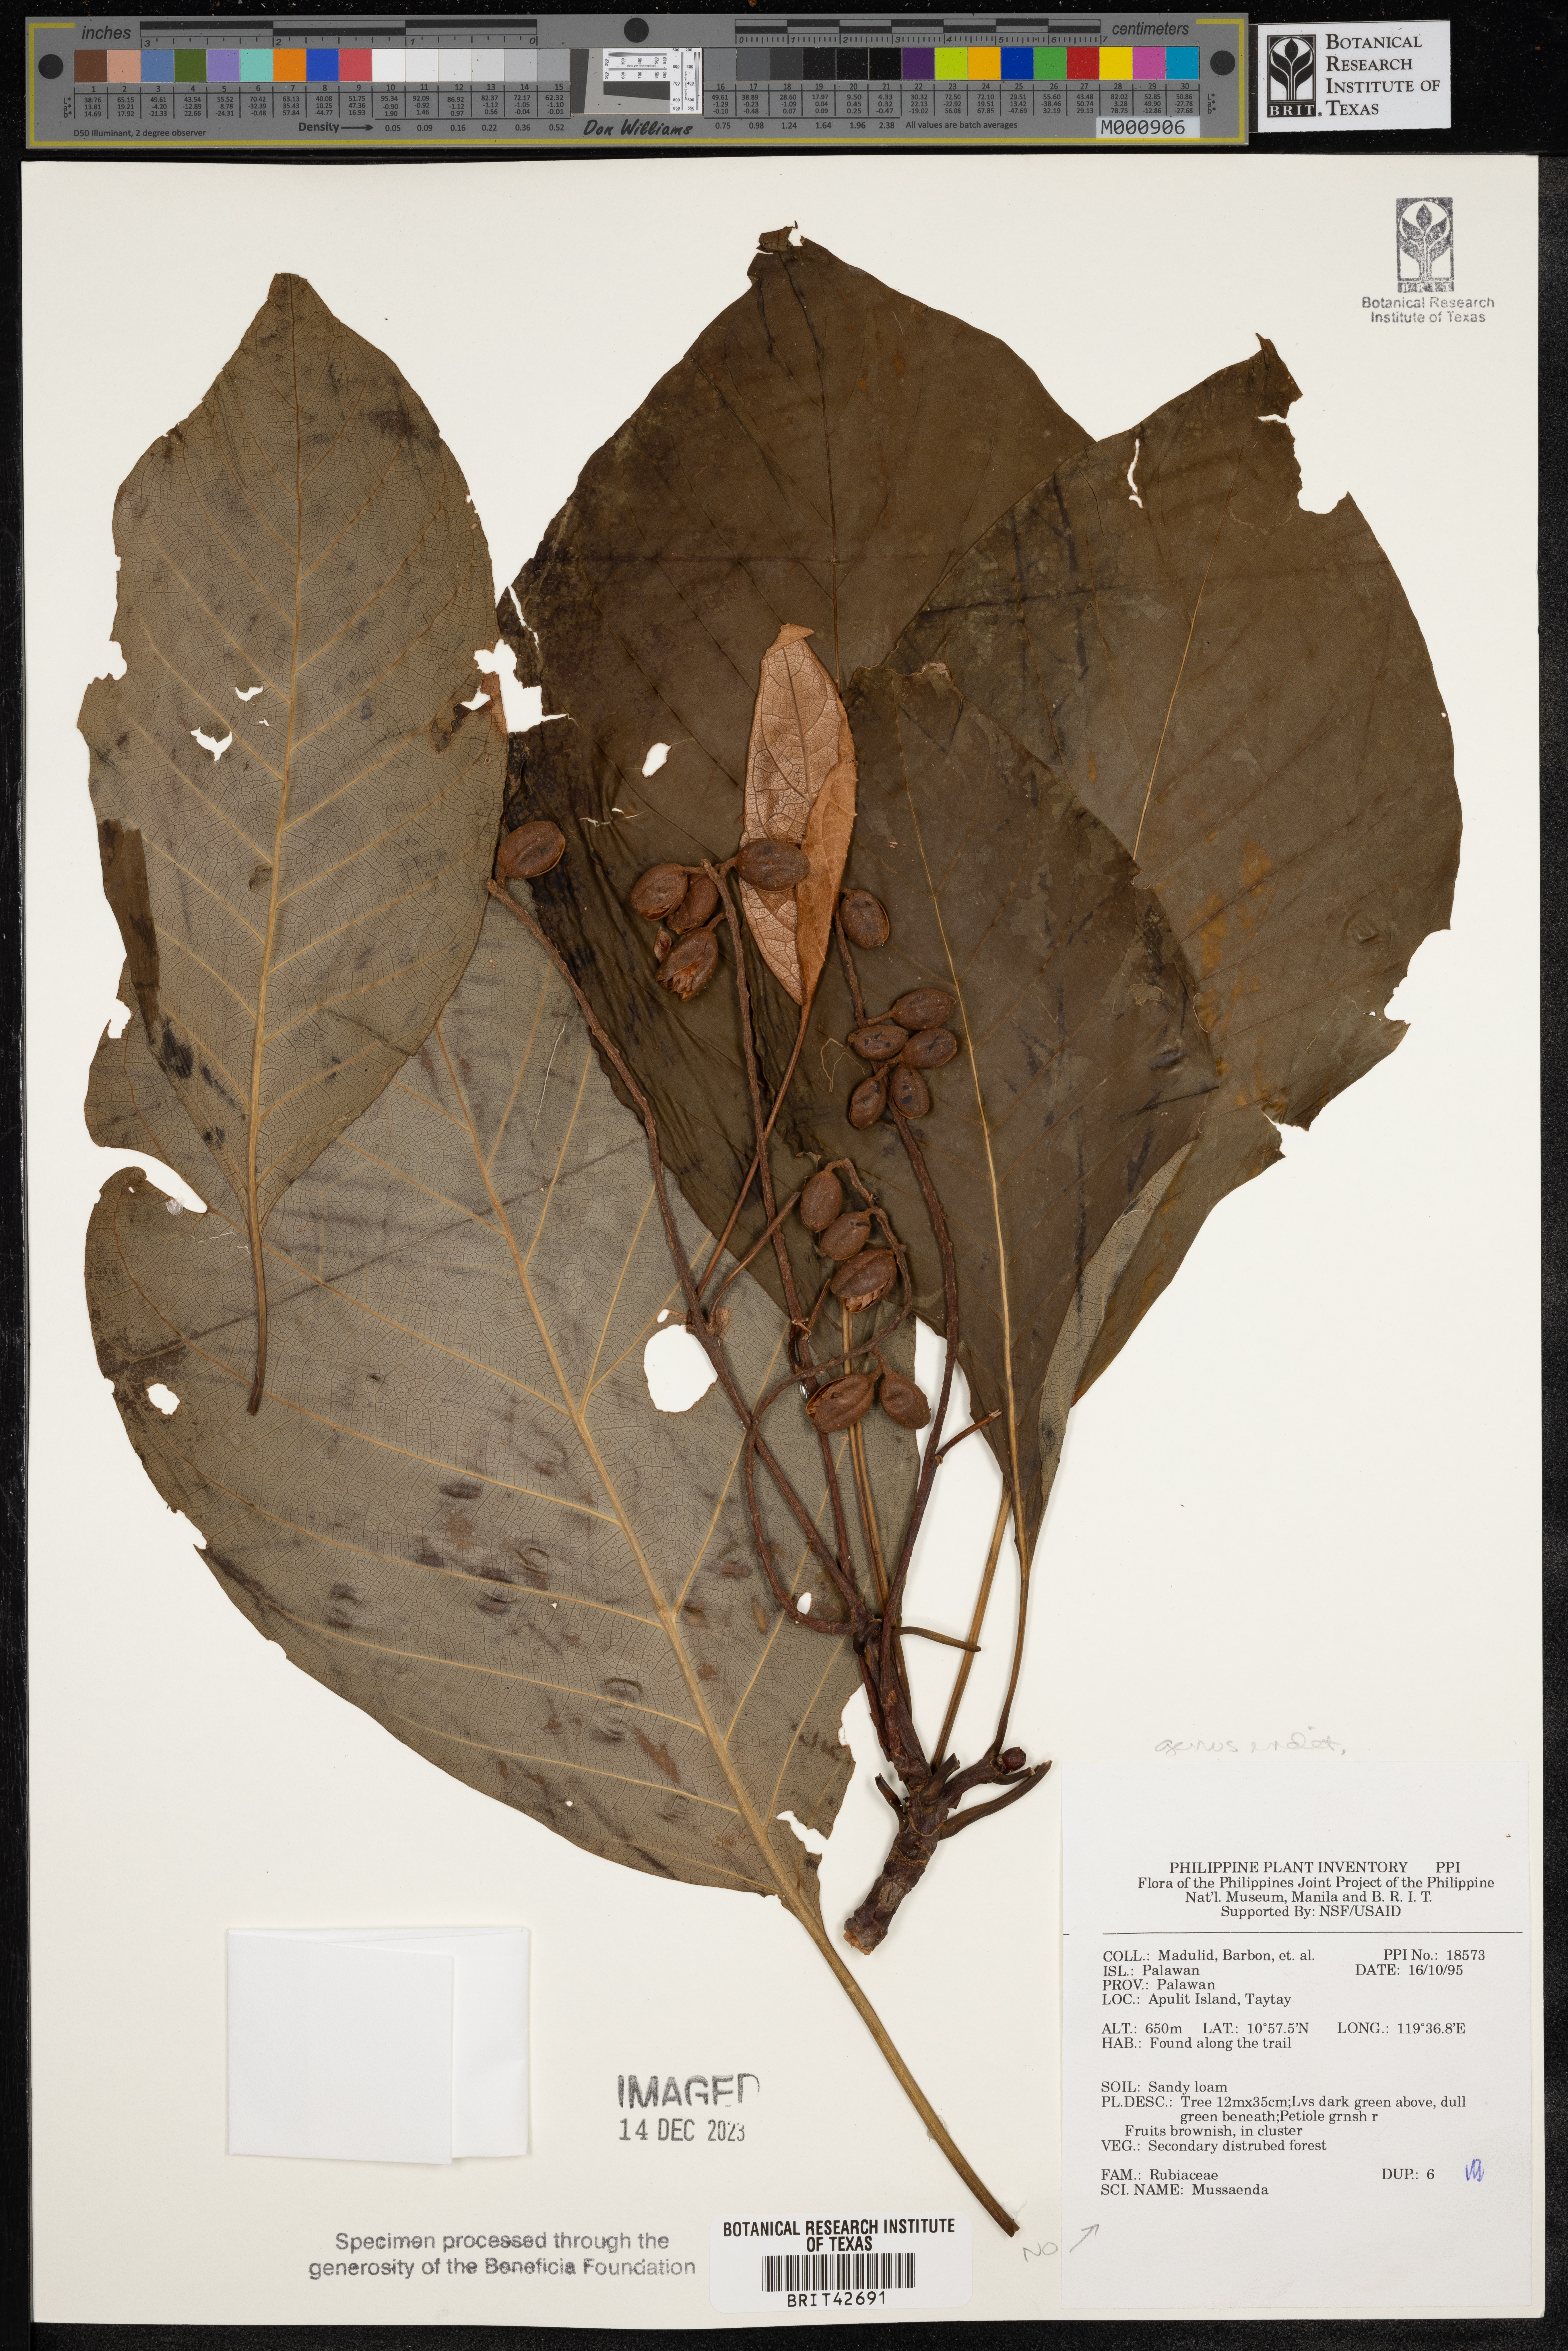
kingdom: Plantae
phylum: Tracheophyta
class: Magnoliopsida
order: Gentianales
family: Rubiaceae
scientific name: Rubiaceae
